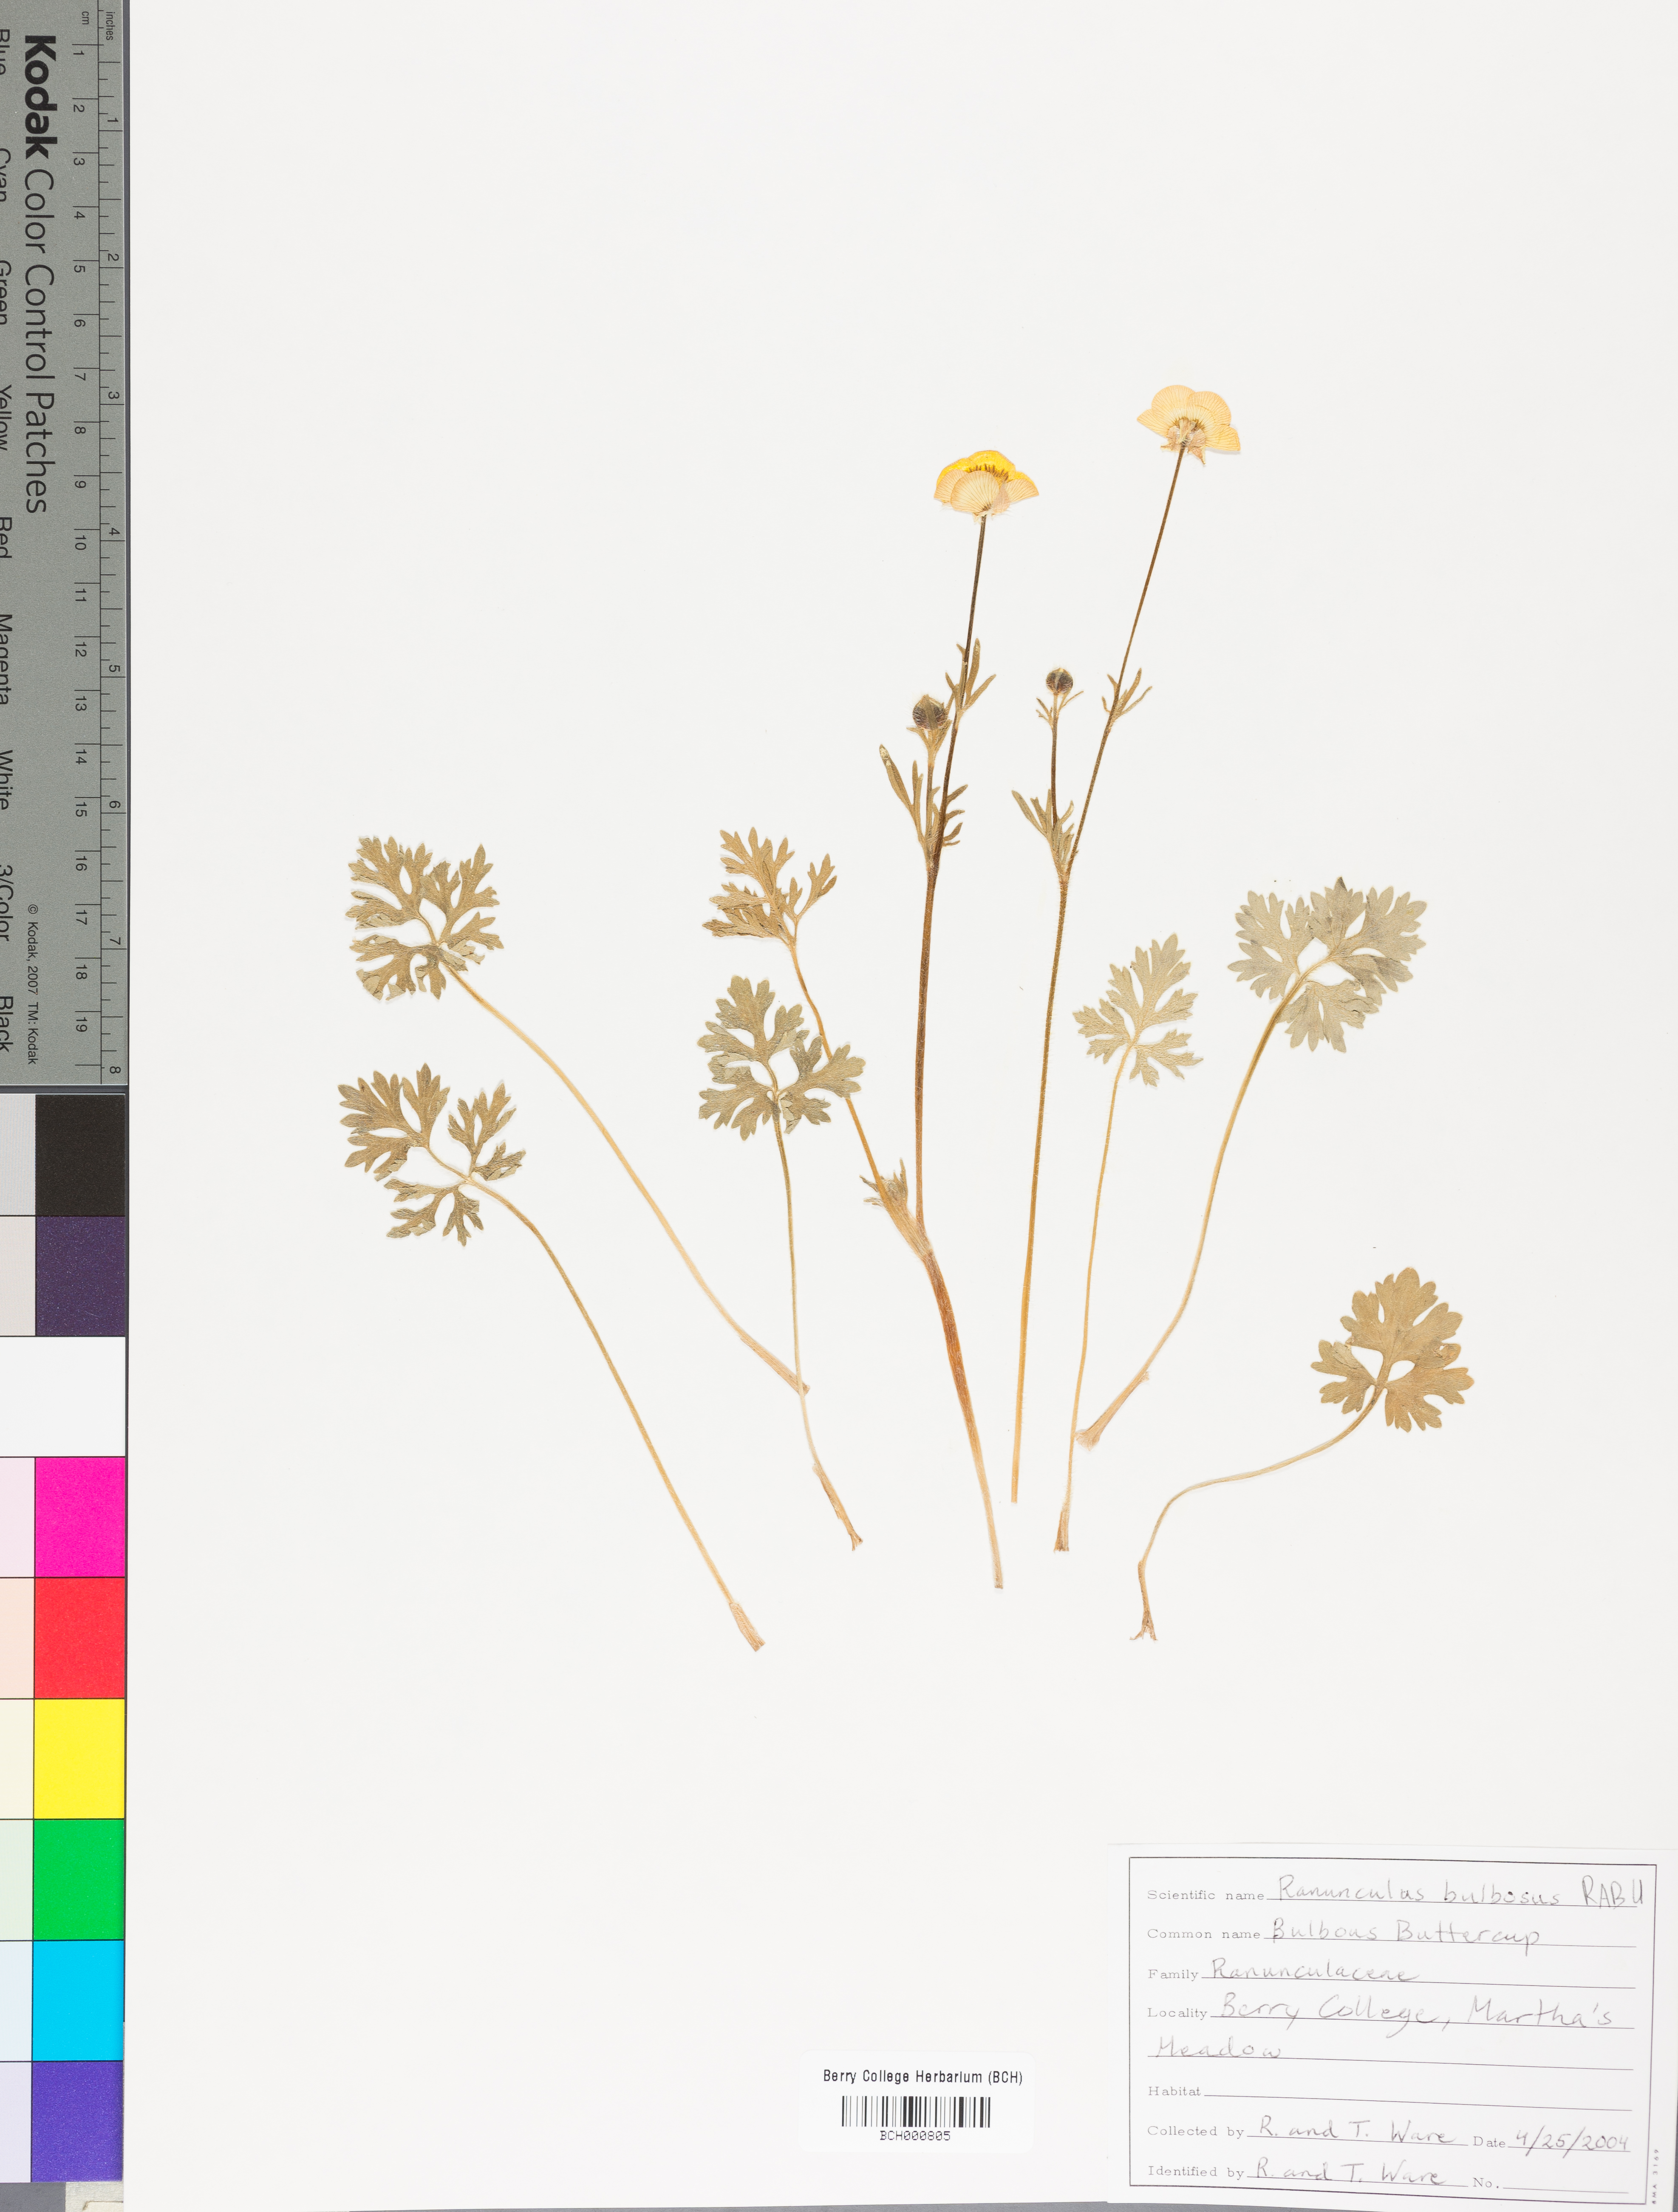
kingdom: Plantae
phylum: Tracheophyta
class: Magnoliopsida
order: Ranunculales
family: Ranunculaceae
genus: Ranunculus
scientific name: Ranunculus bulbosus
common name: Bulbous buttercup
